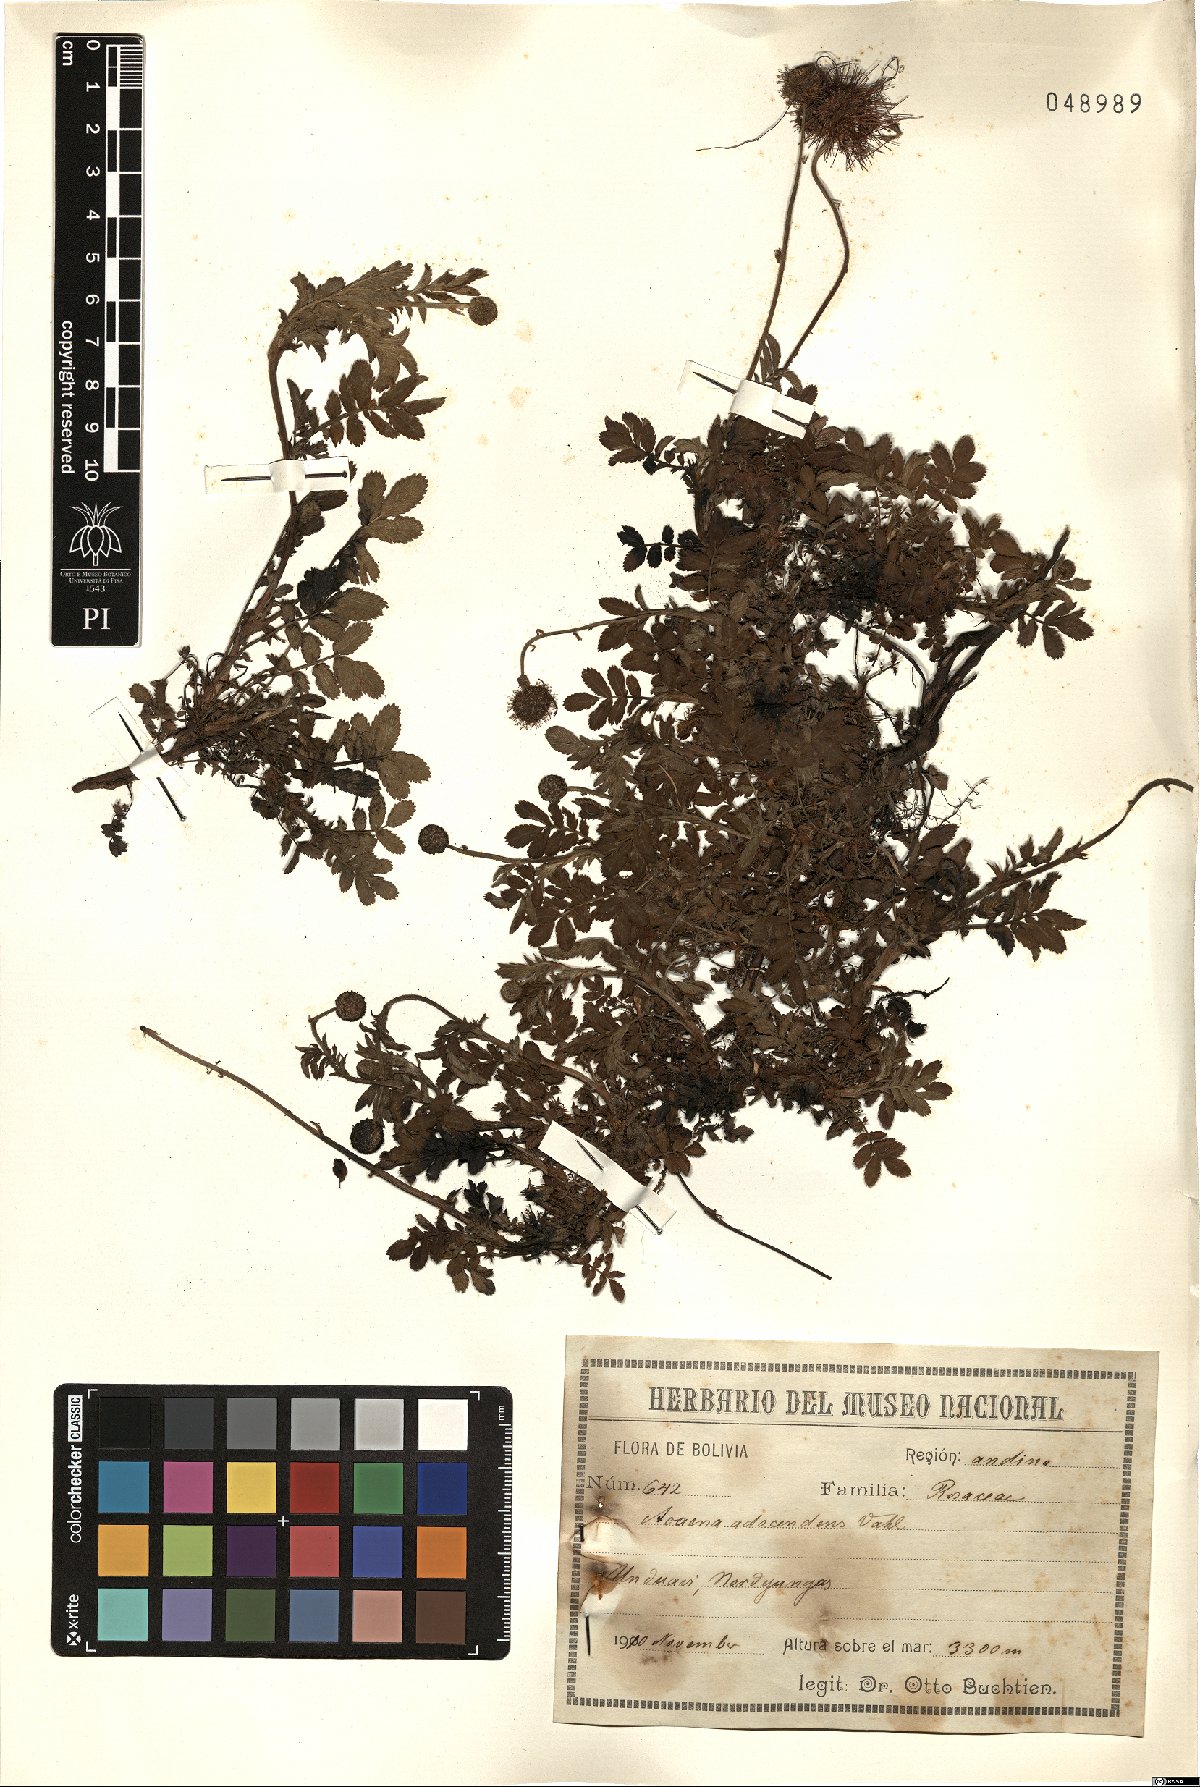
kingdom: Plantae
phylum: Tracheophyta
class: Magnoliopsida
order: Rosales
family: Rosaceae
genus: Acaena
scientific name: Acaena magellanica
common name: New zealand burr
